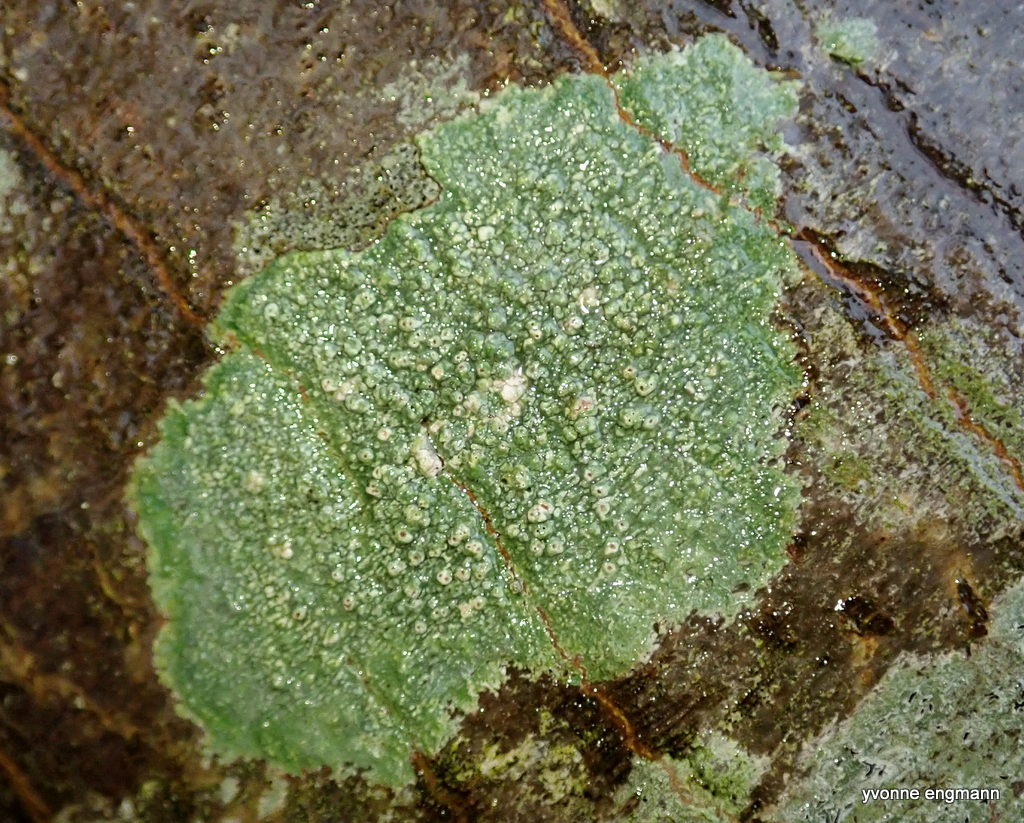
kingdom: Fungi
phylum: Ascomycota
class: Lecanoromycetes
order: Pertusariales
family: Pertusariaceae
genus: Pertusaria
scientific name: Pertusaria pertusa
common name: almindelig prikvortelav
